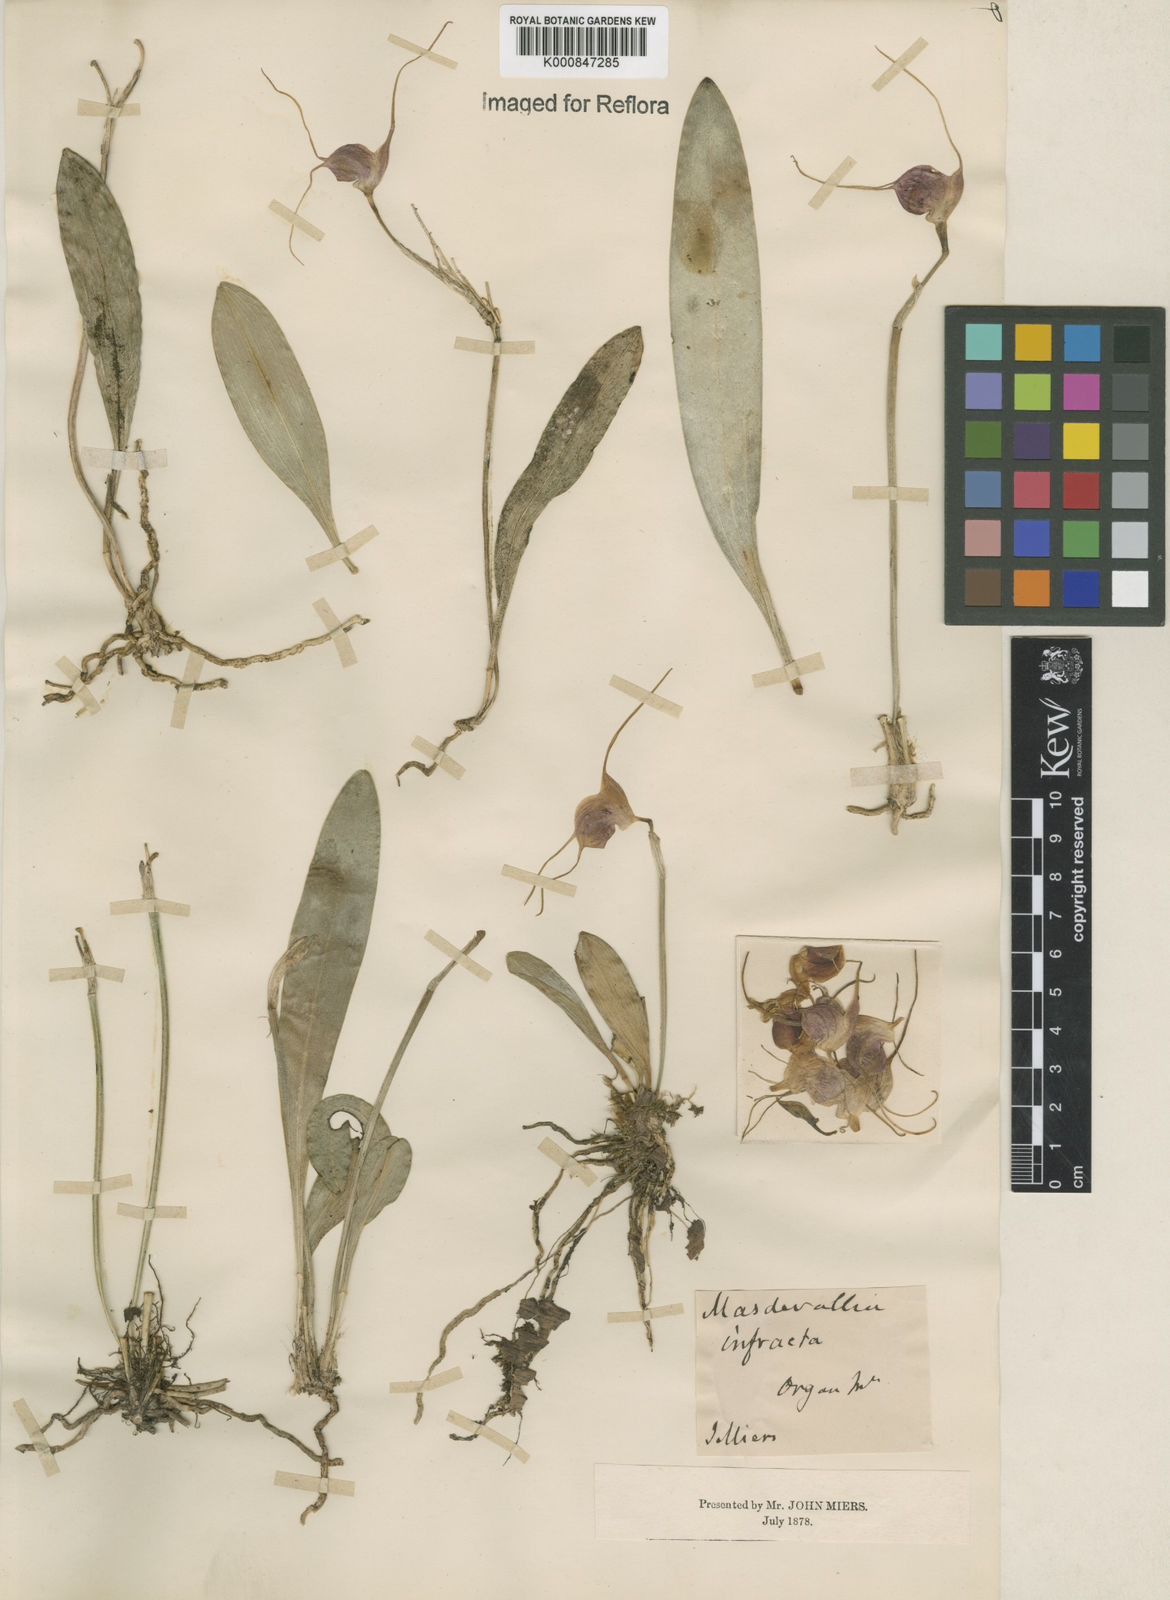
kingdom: Plantae
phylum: Tracheophyta
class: Liliopsida
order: Asparagales
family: Orchidaceae
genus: Masdevallia
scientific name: Masdevallia infracta
